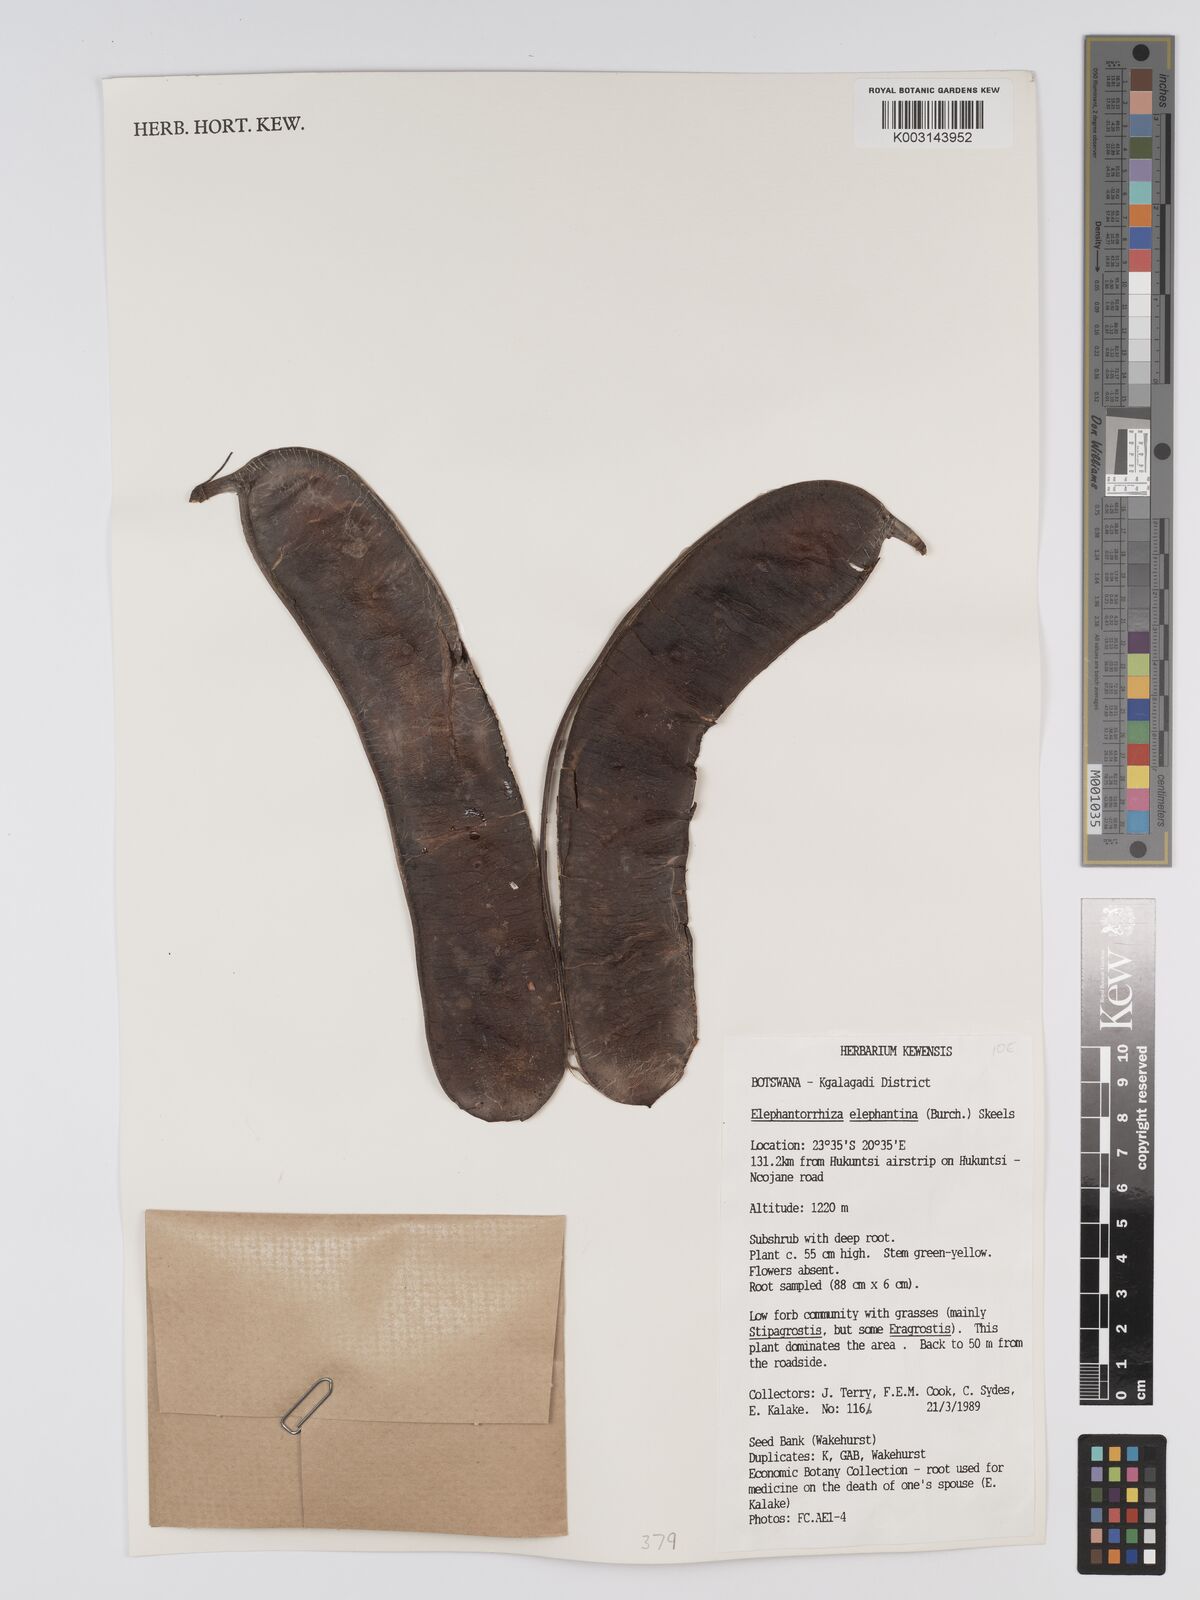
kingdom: Plantae
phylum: Tracheophyta
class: Magnoliopsida
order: Fabales
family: Fabaceae
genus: Elephantorrhiza
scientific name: Elephantorrhiza elephantina
